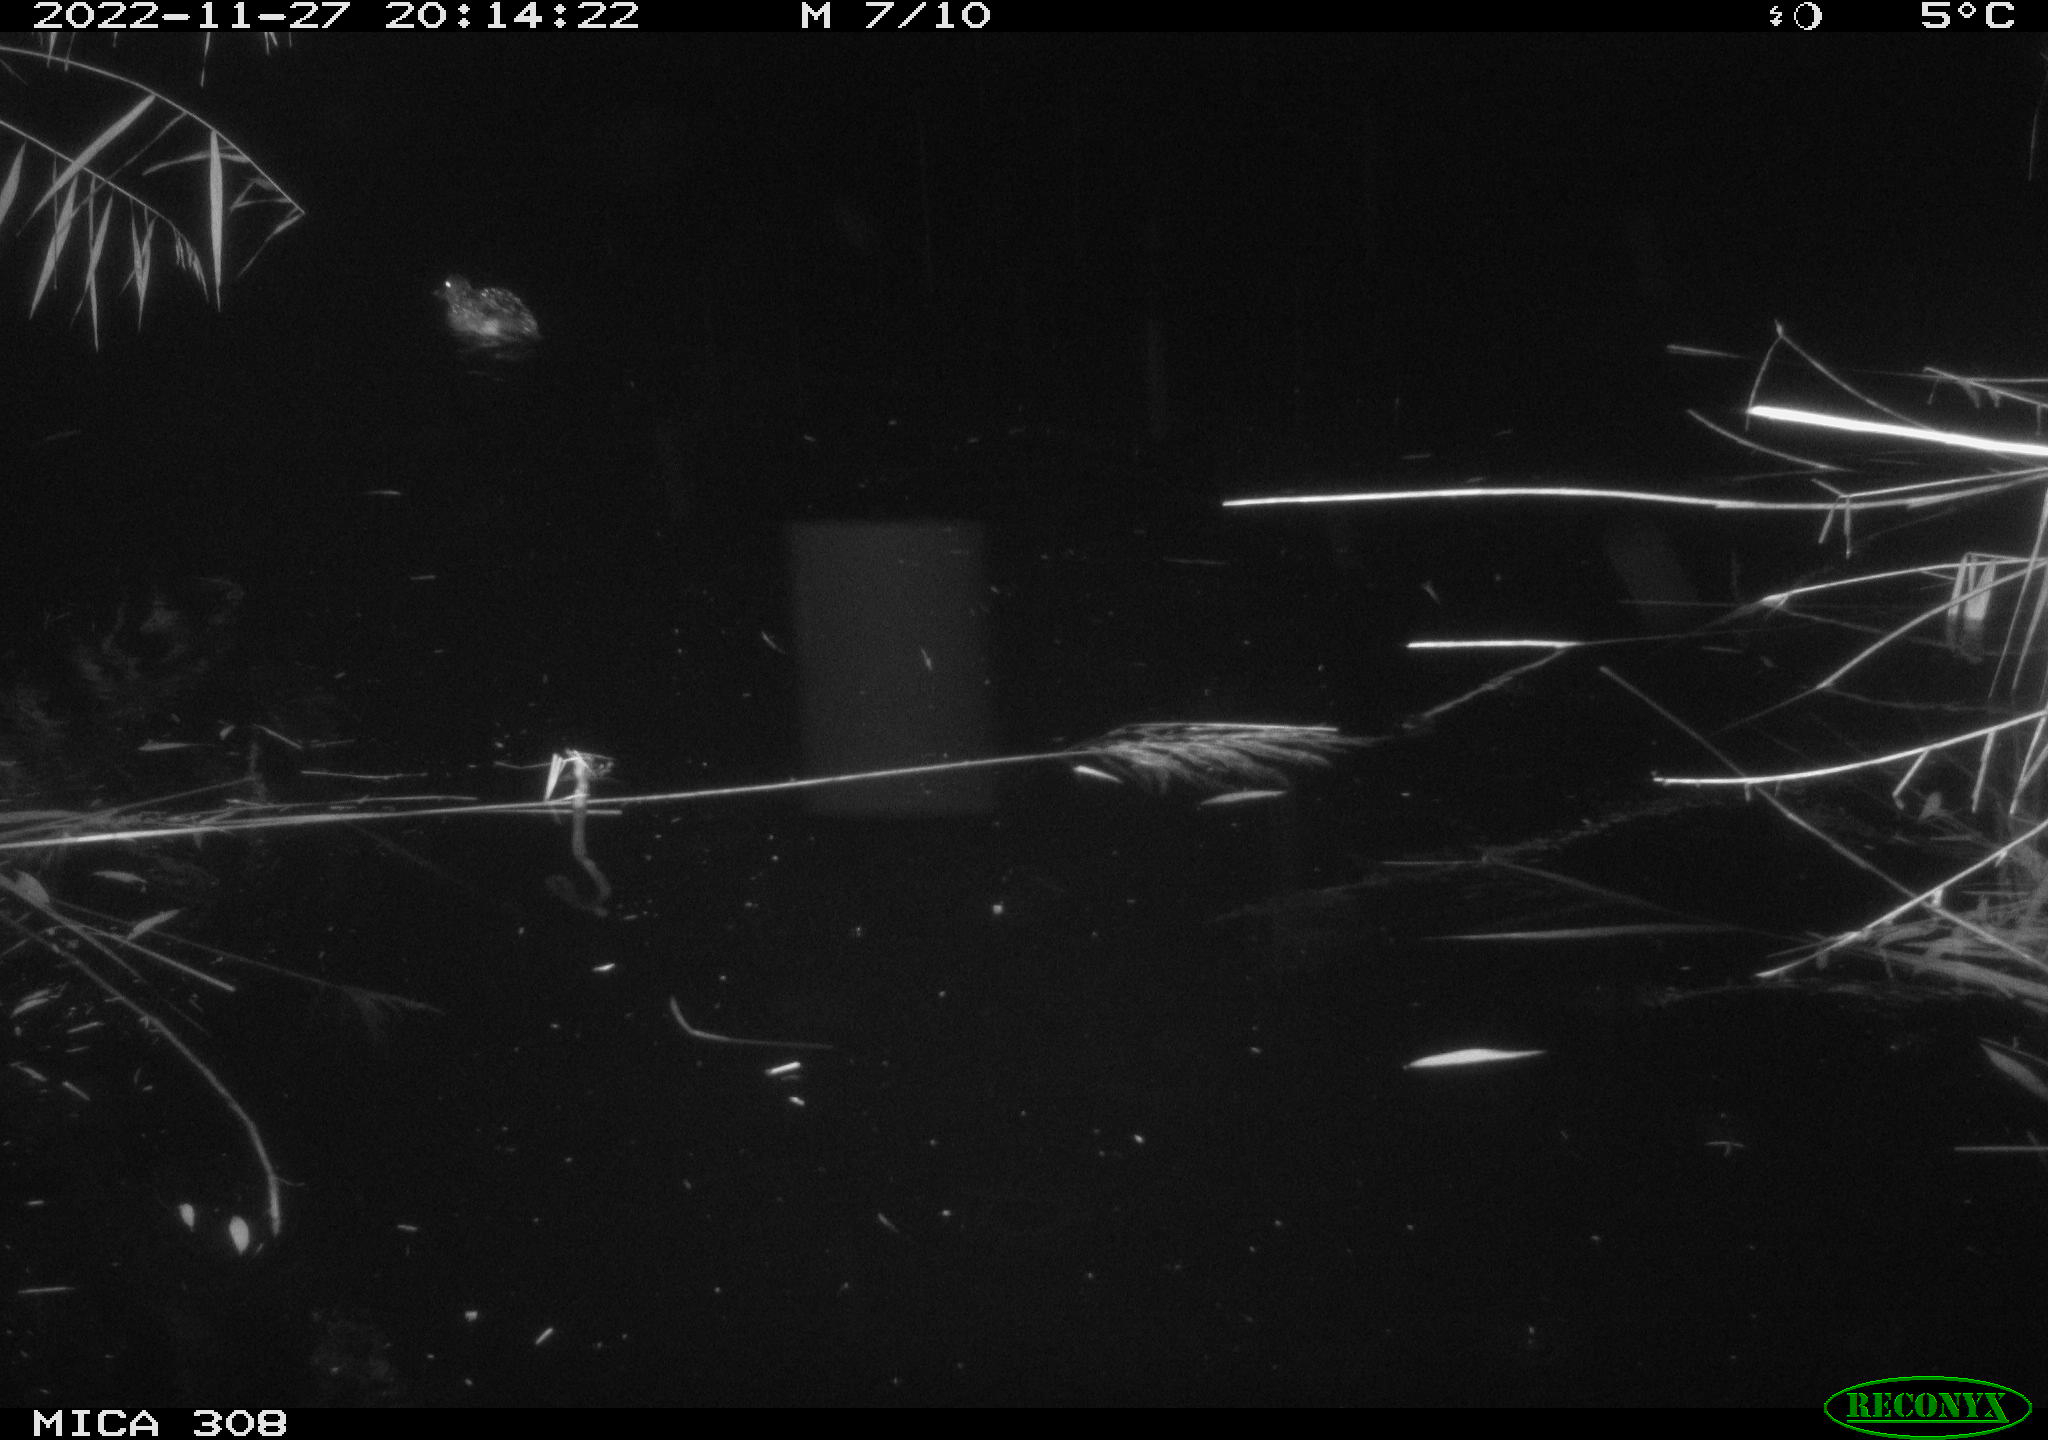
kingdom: Animalia
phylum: Chordata
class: Aves
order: Anseriformes
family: Anatidae
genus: Anas
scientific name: Anas
